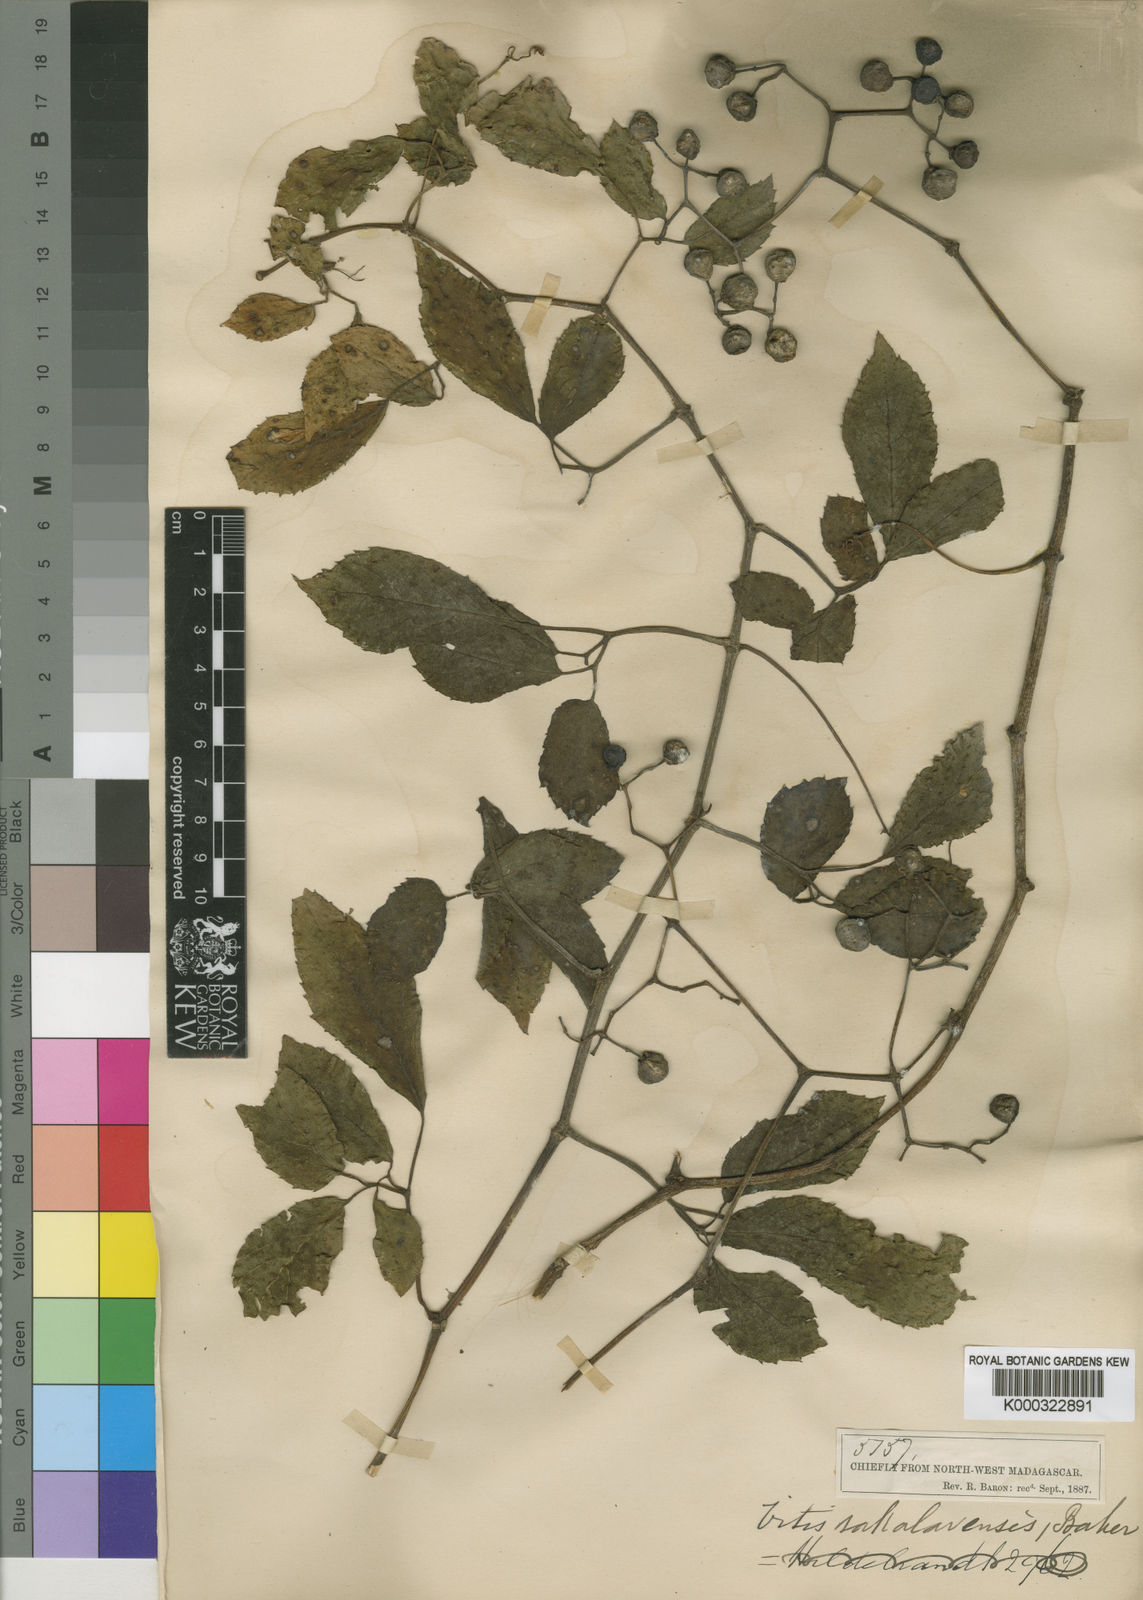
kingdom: Plantae
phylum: Tracheophyta
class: Magnoliopsida
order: Vitales
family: Vitaceae
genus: Afrocayratia
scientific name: Afrocayratia imerinensis
